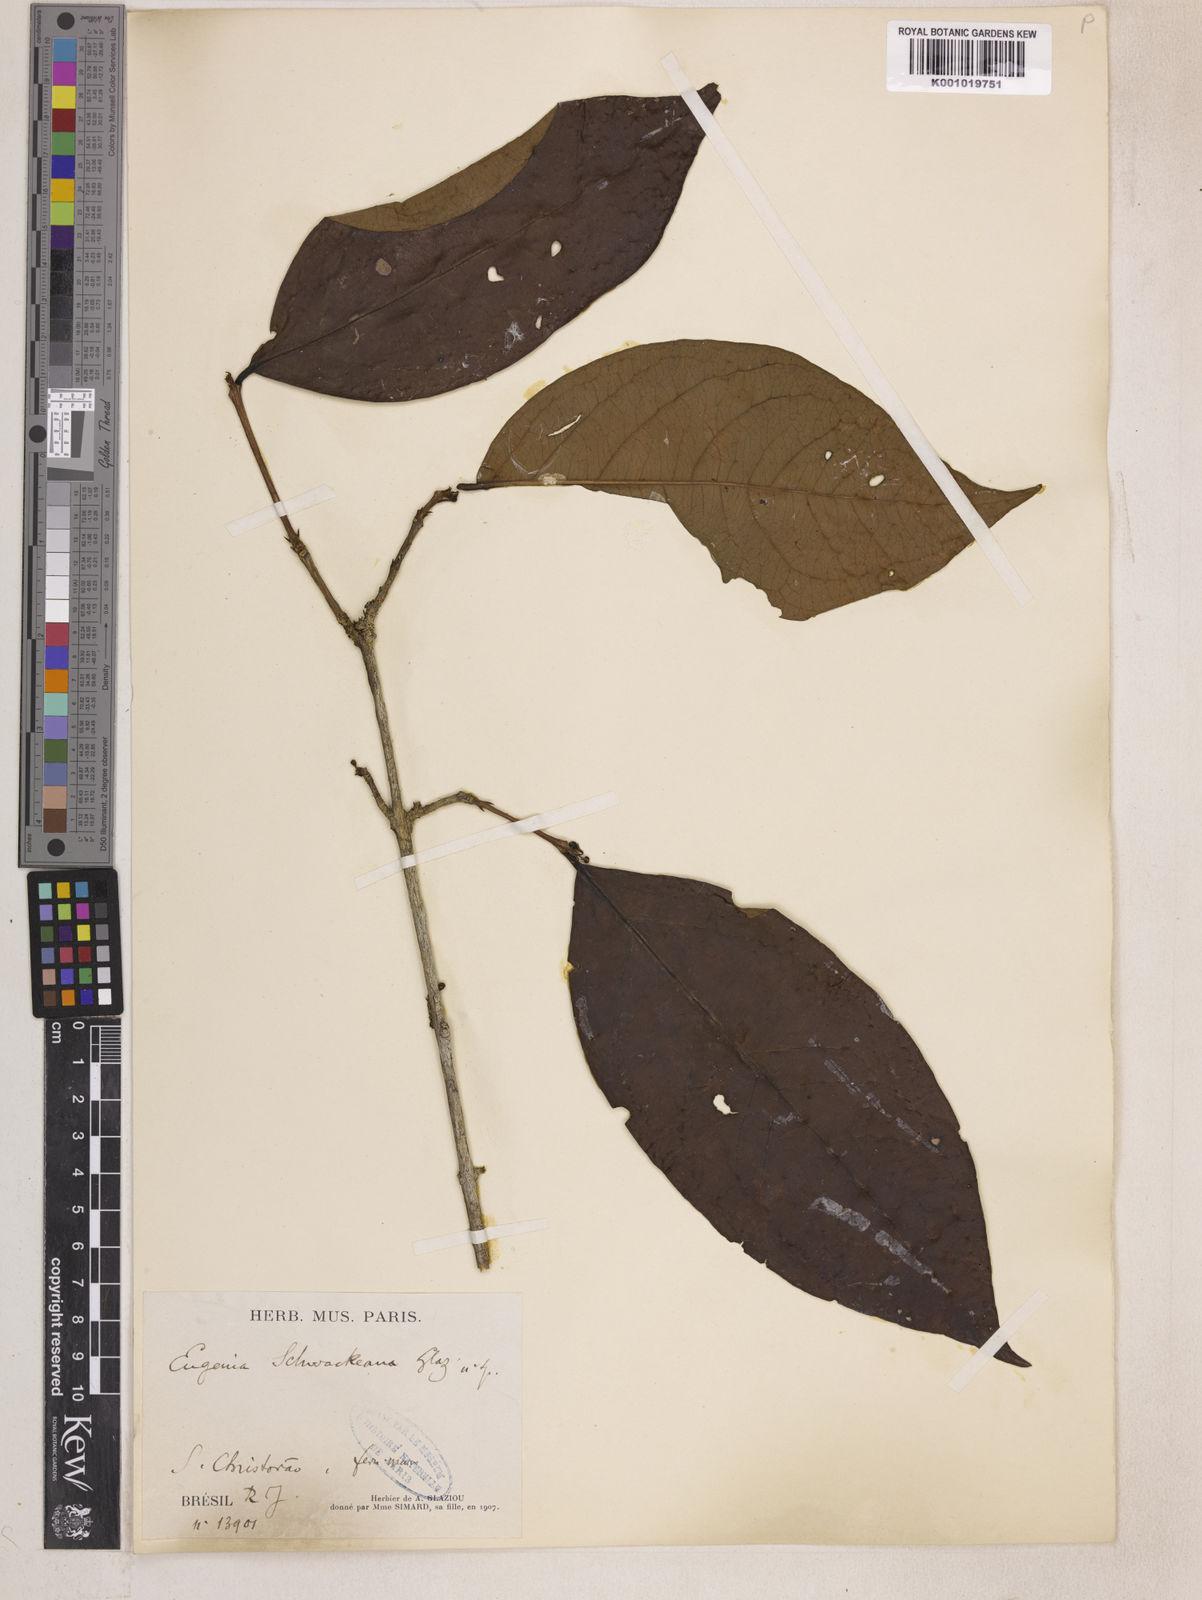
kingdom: Plantae
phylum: Tracheophyta
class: Magnoliopsida
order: Myrtales
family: Myrtaceae
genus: Eugenia
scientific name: Eugenia
